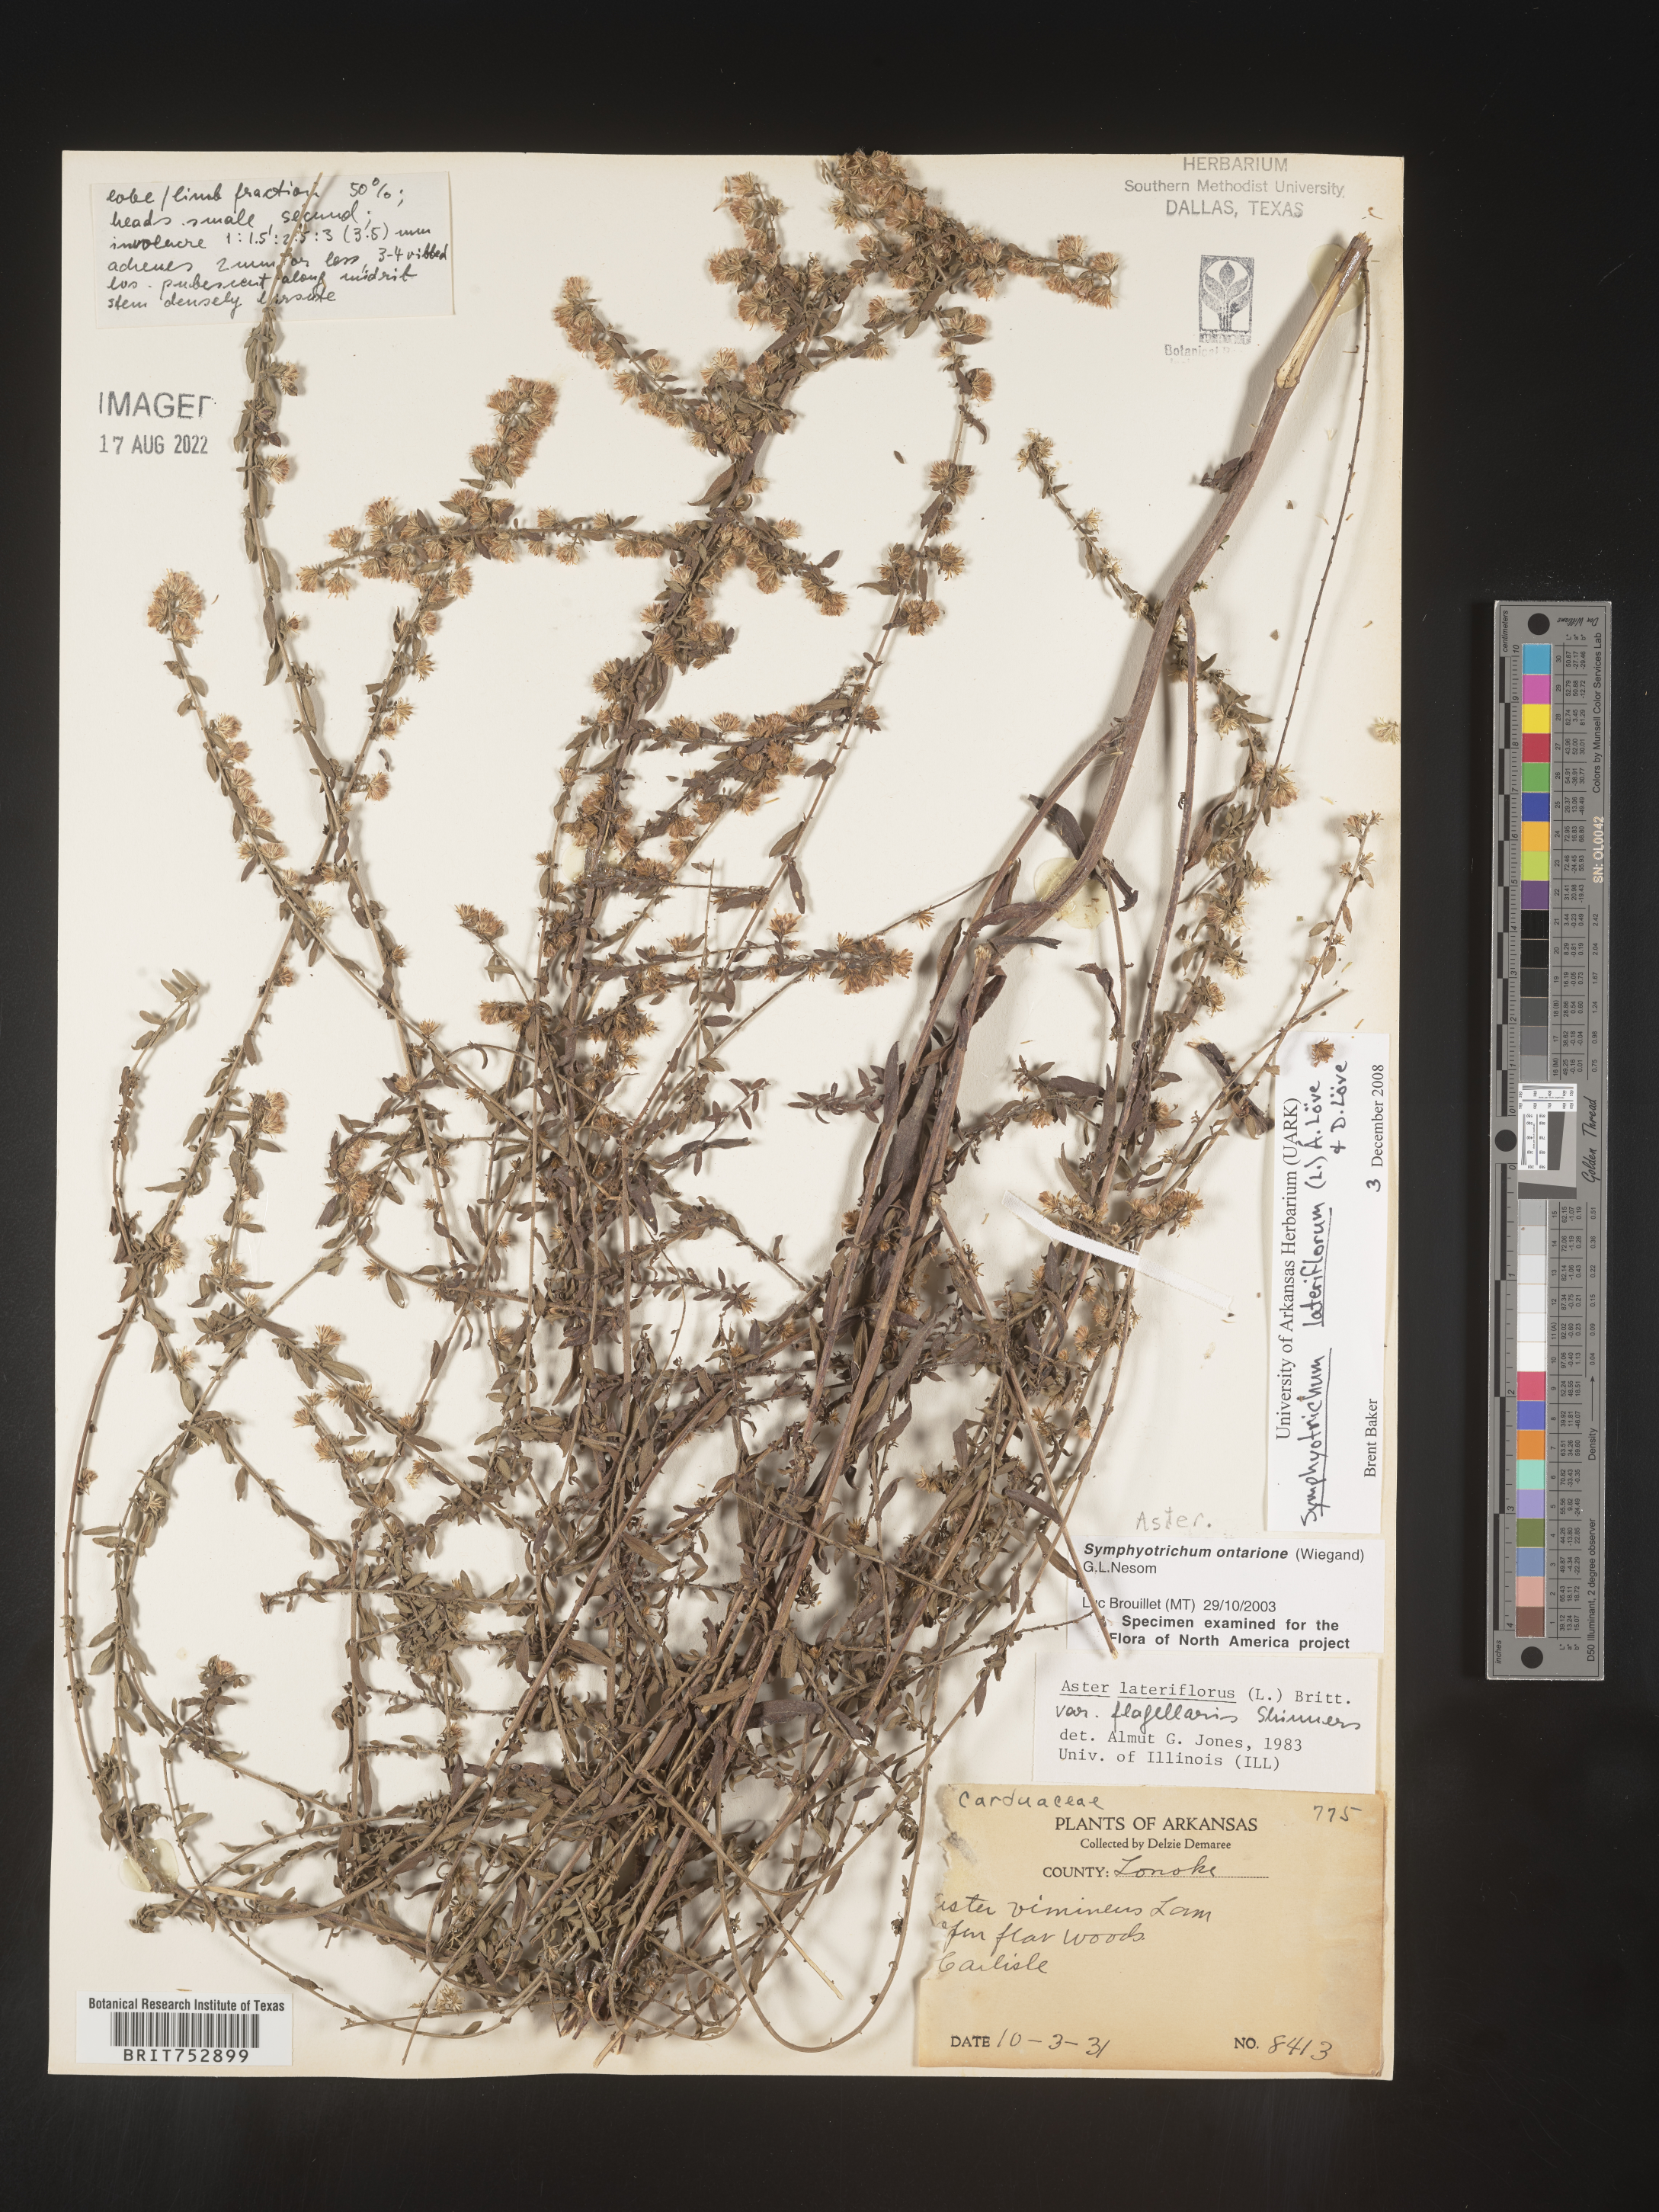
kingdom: Plantae
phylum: Tracheophyta
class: Magnoliopsida
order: Asterales
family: Asteraceae
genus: Symphyotrichum
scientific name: Symphyotrichum lateriflorum
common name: Calico aster
